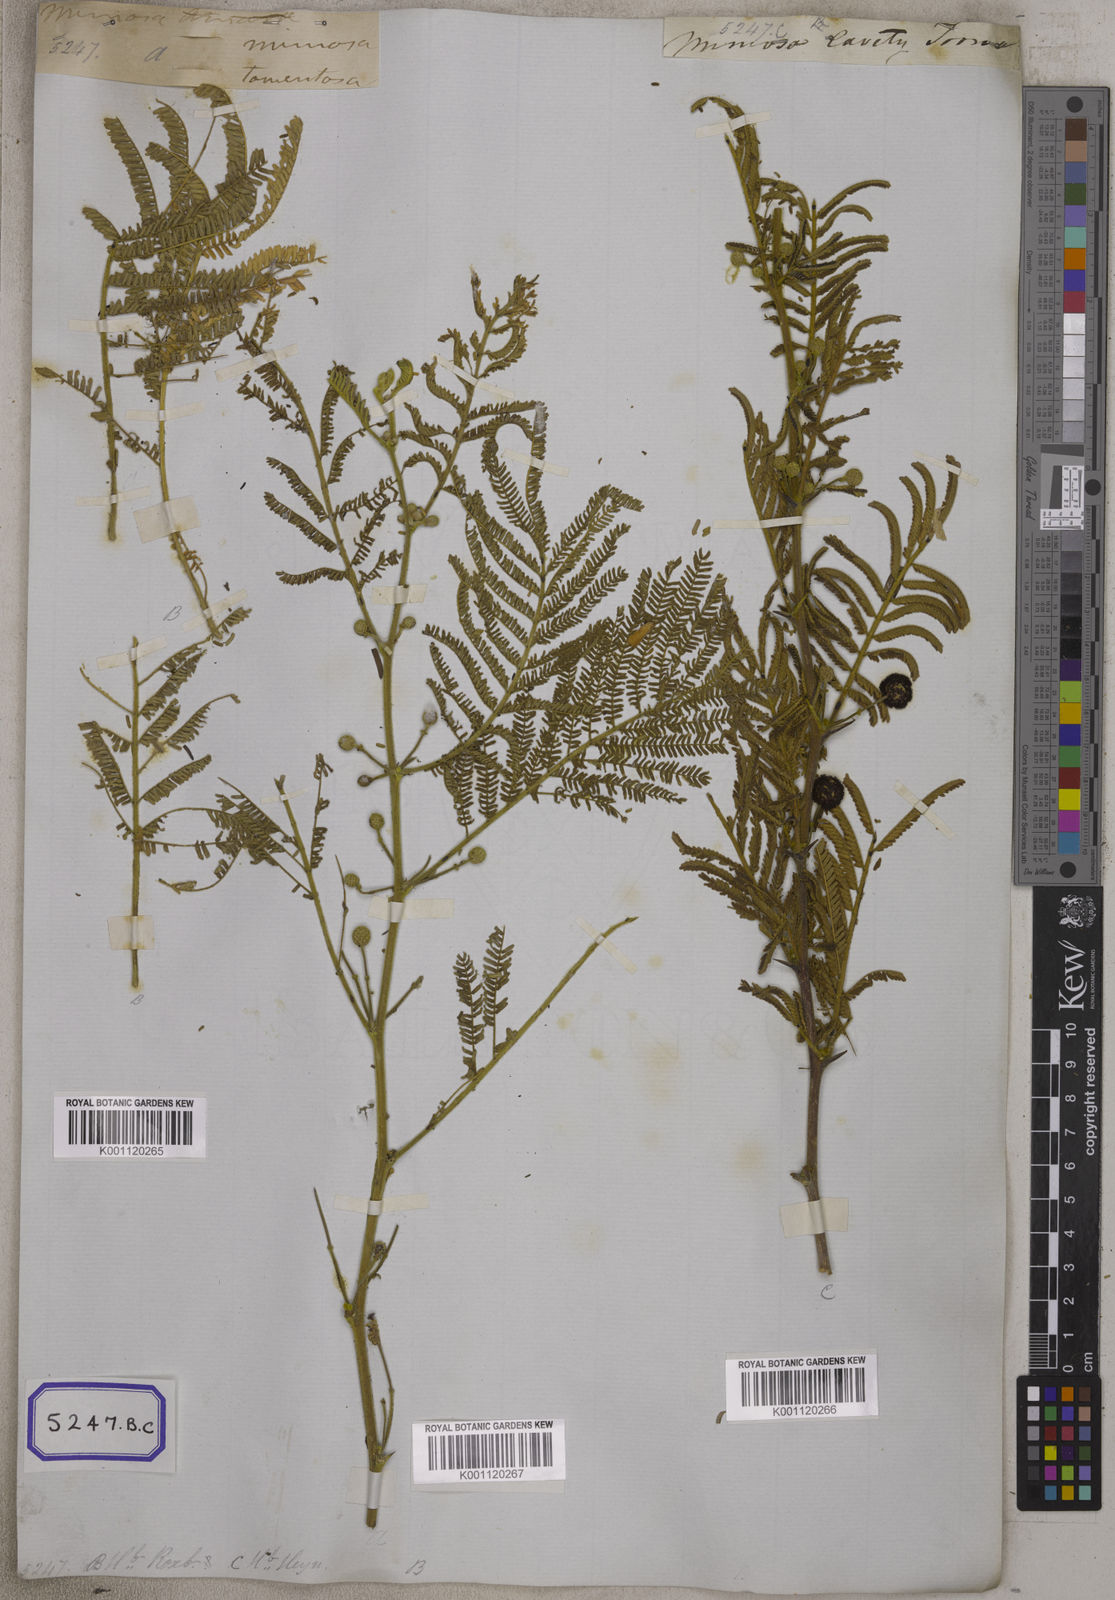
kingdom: Plantae
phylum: Tracheophyta
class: Magnoliopsida
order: Fabales
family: Fabaceae
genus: Vachellia
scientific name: Vachellia tomentosa
